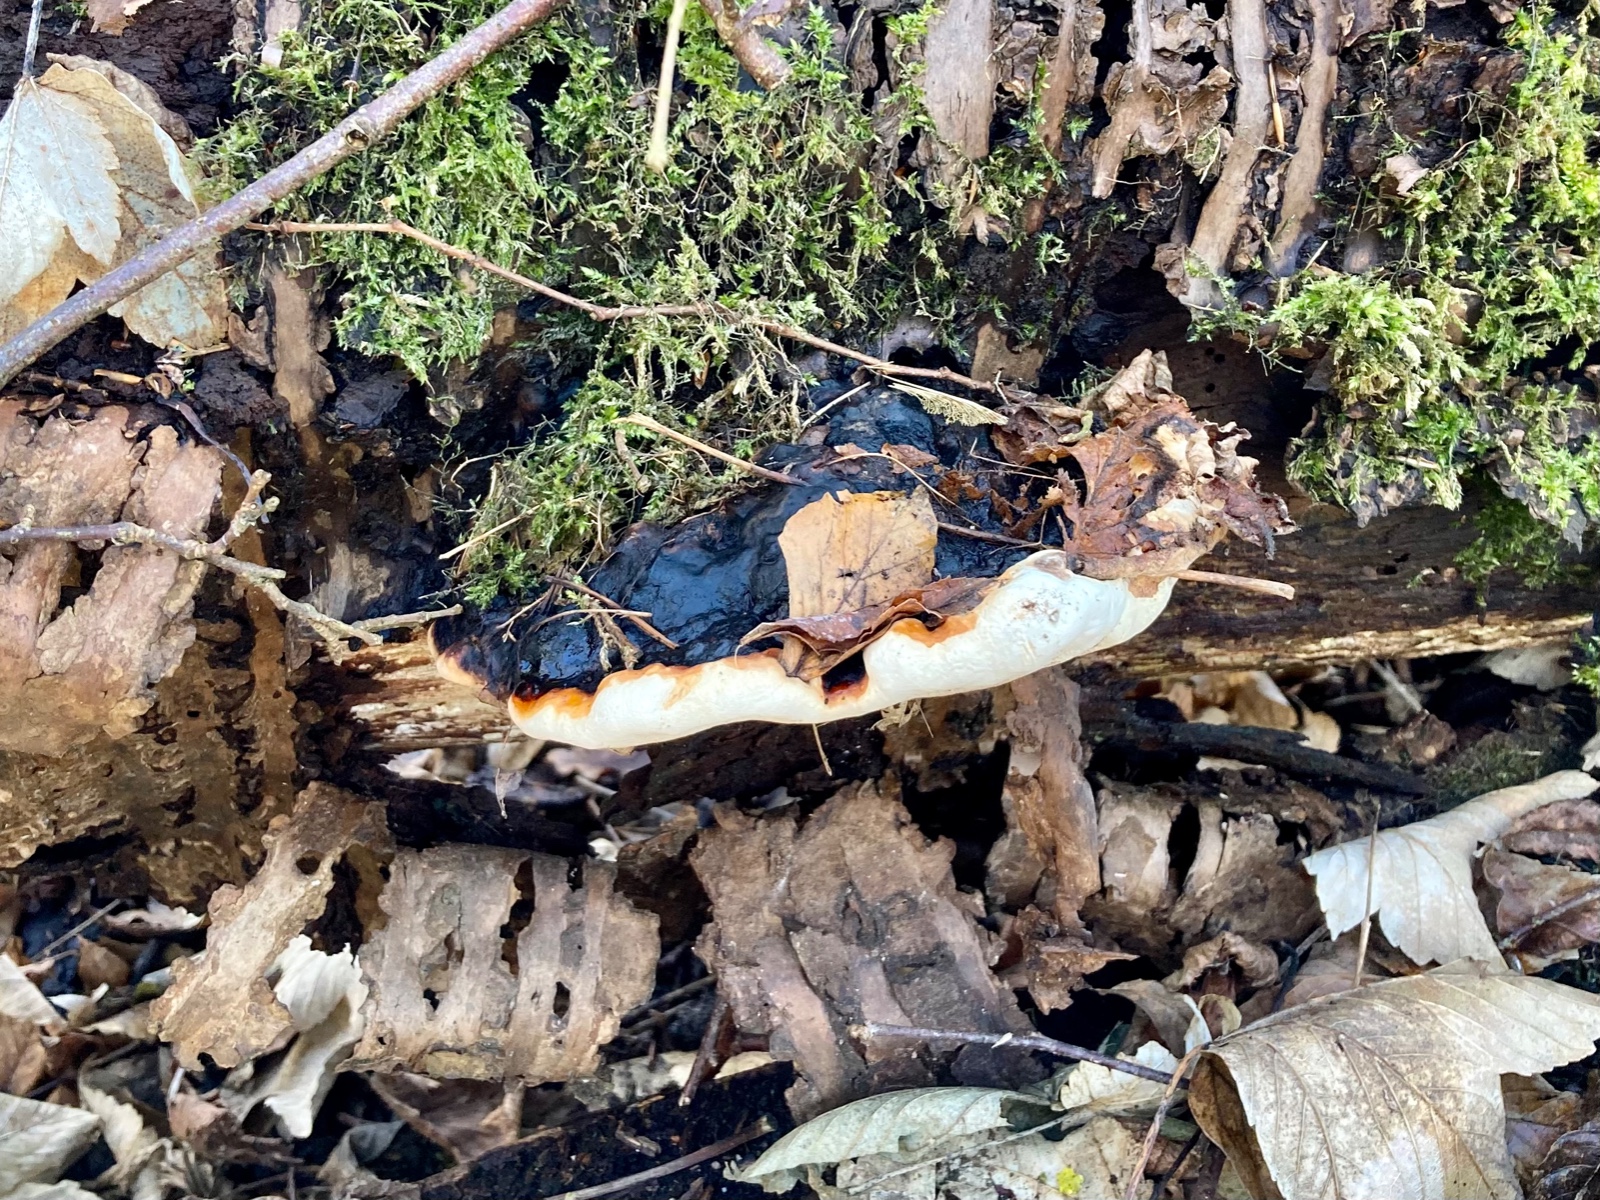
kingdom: Fungi
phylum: Basidiomycota
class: Agaricomycetes
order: Polyporales
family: Fomitopsidaceae
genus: Fomitopsis
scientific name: Fomitopsis pinicola
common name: randbæltet hovporesvamp
